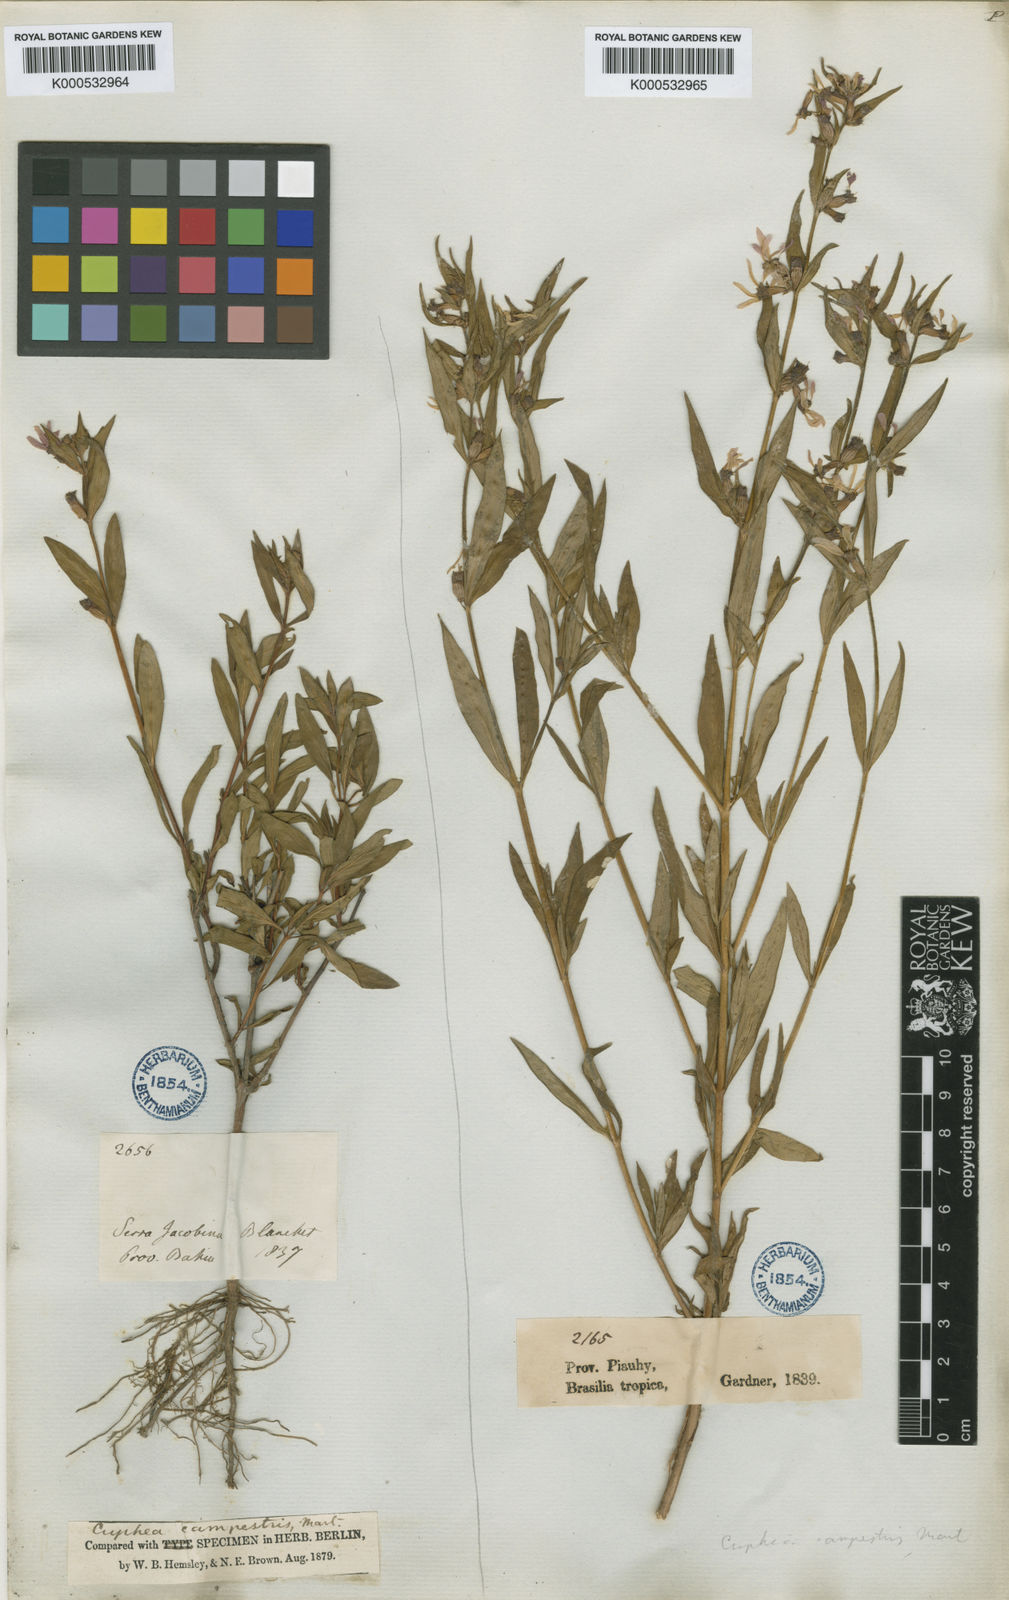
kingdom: Plantae
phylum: Tracheophyta
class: Magnoliopsida
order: Myrtales
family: Lythraceae
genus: Cuphea
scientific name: Cuphea campestris
